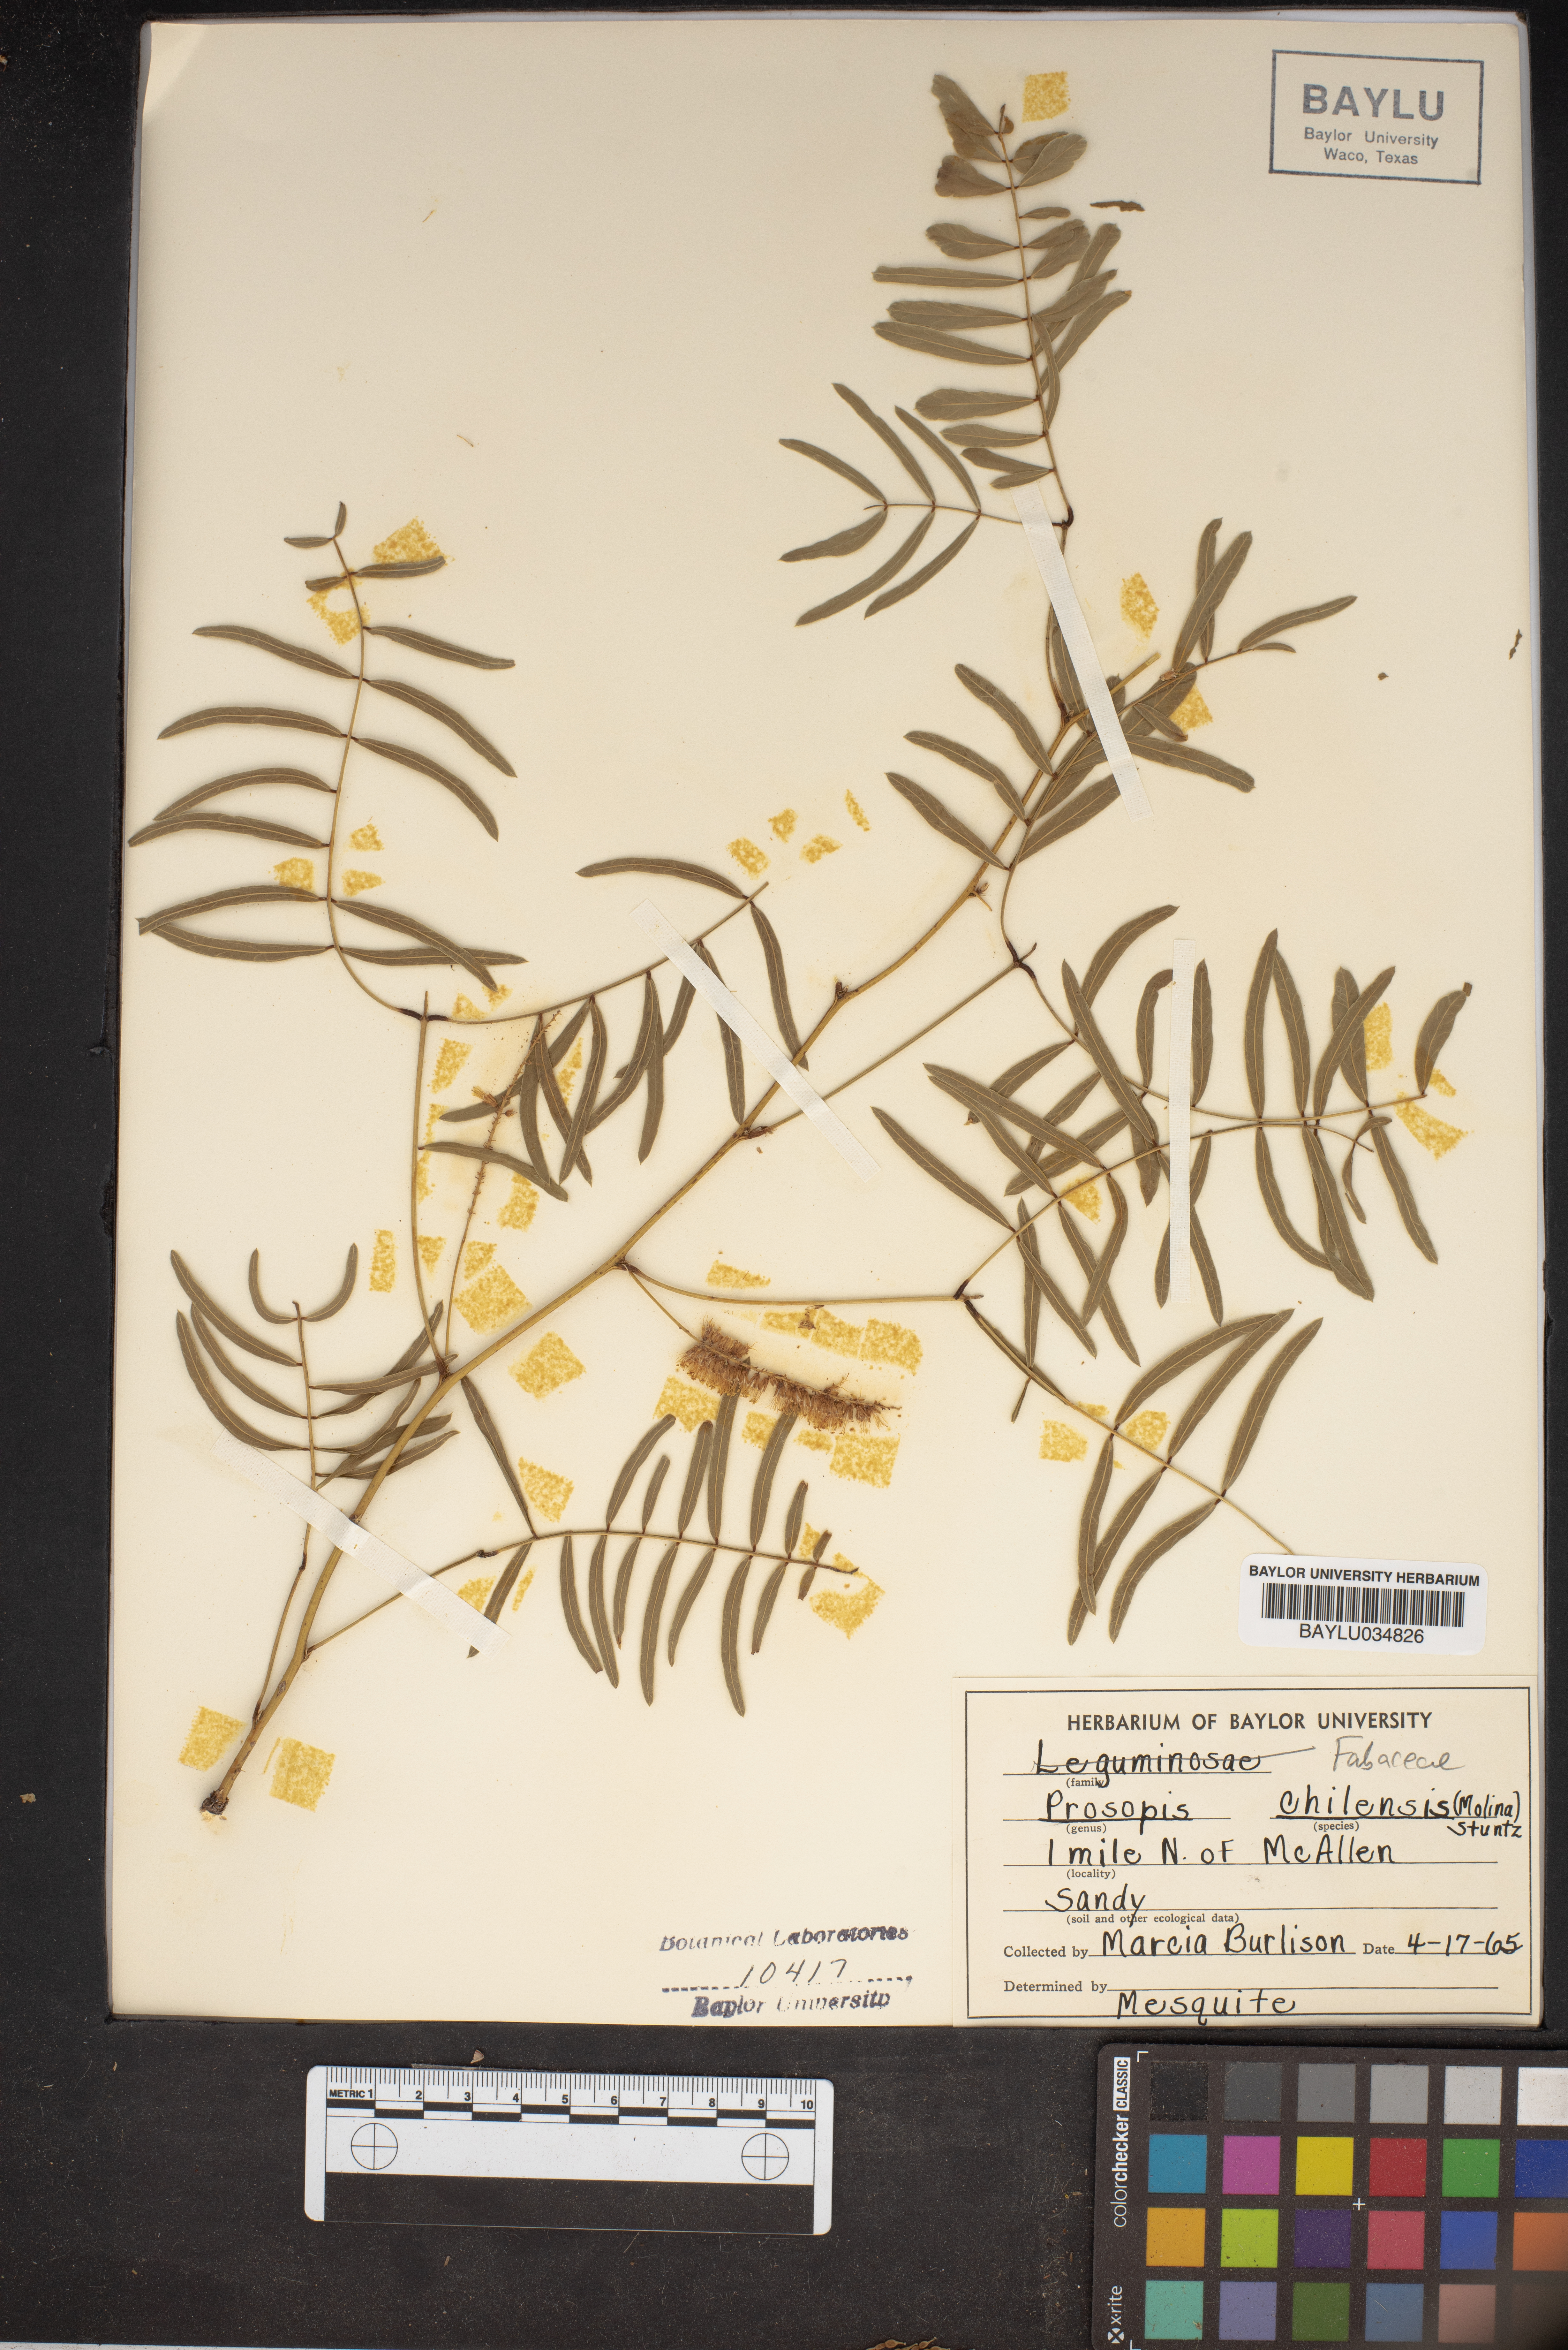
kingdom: Plantae
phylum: Tracheophyta
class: Magnoliopsida
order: Fabales
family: Fabaceae
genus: Prosopis
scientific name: Prosopis chilensis
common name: Chilean algarrobo
